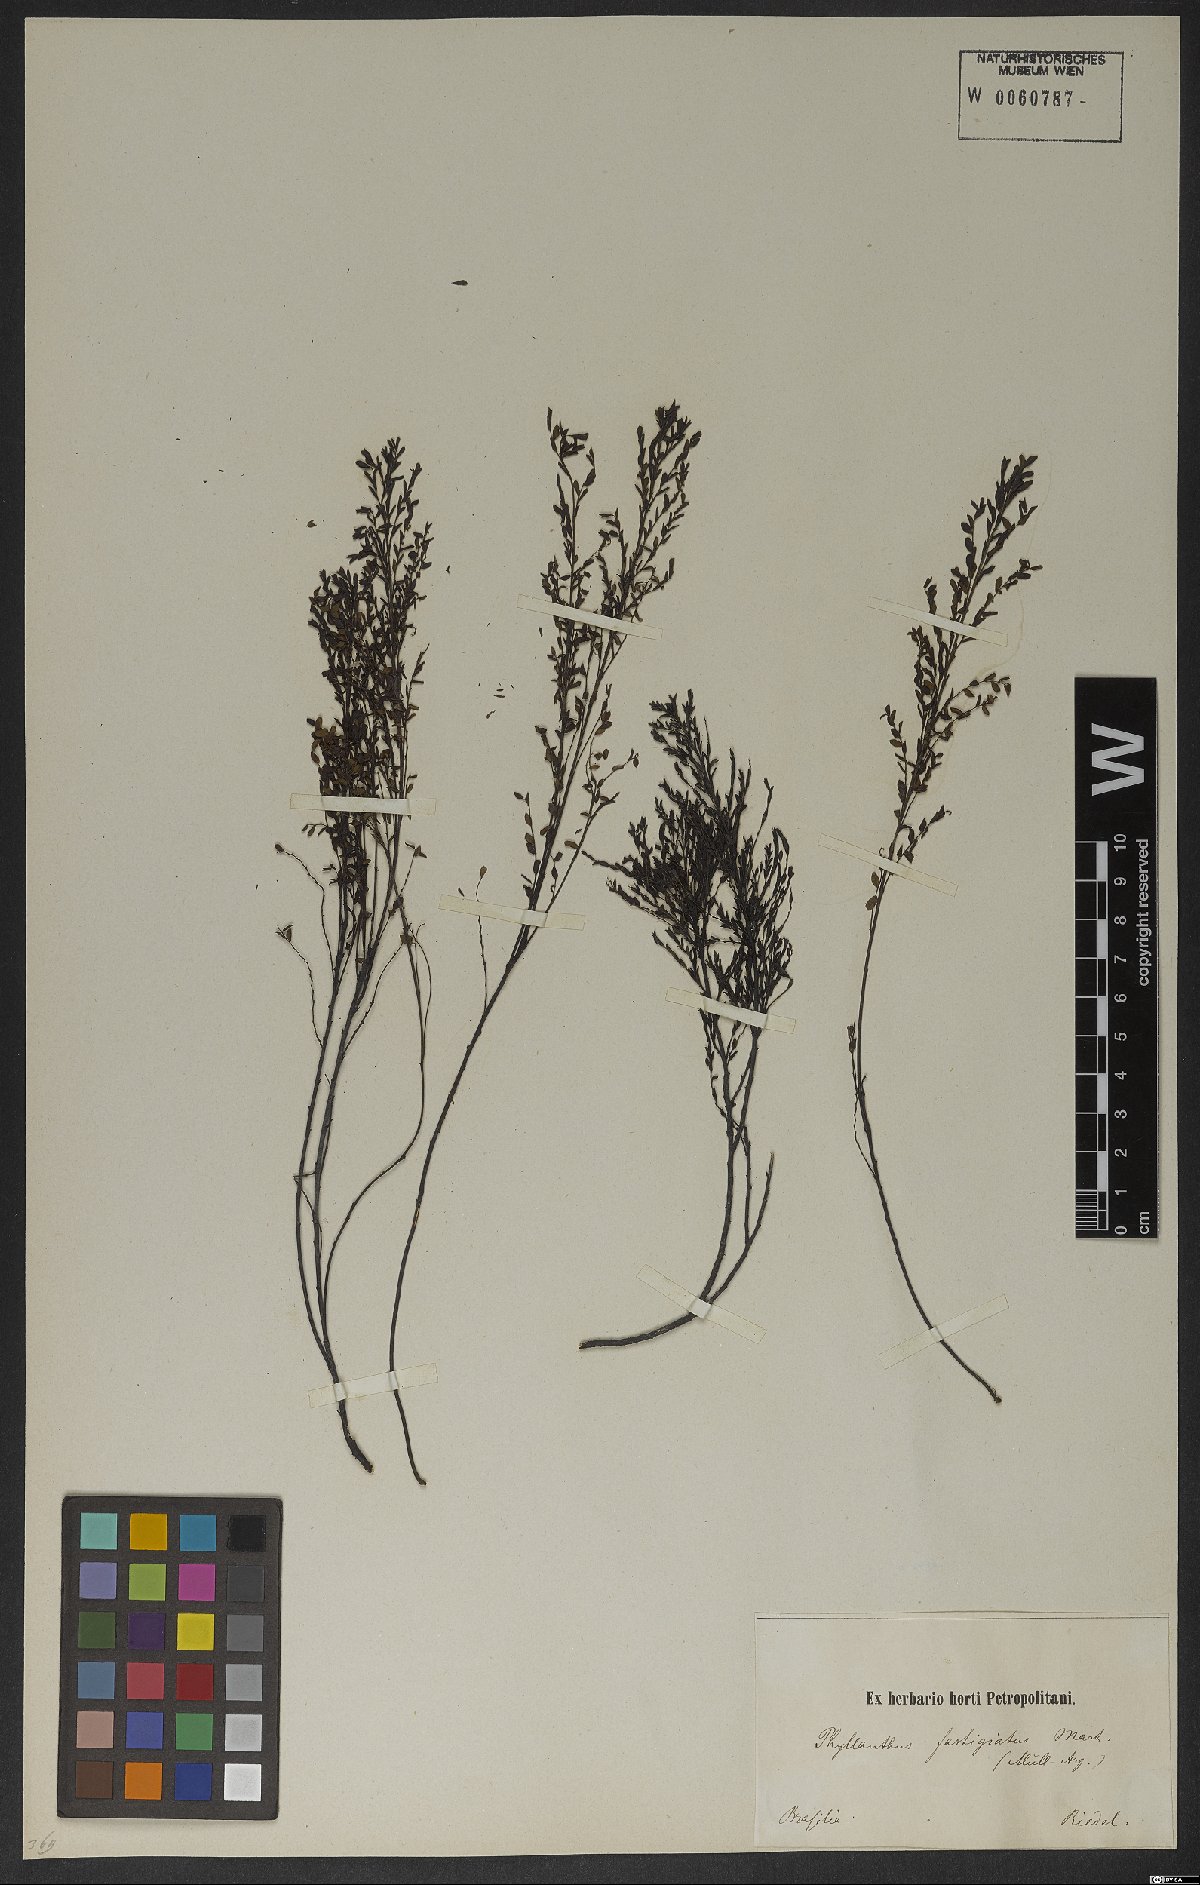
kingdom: Plantae
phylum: Tracheophyta
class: Magnoliopsida
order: Malpighiales
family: Phyllanthaceae
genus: Phyllanthus
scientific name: Phyllanthus fastigiatus
